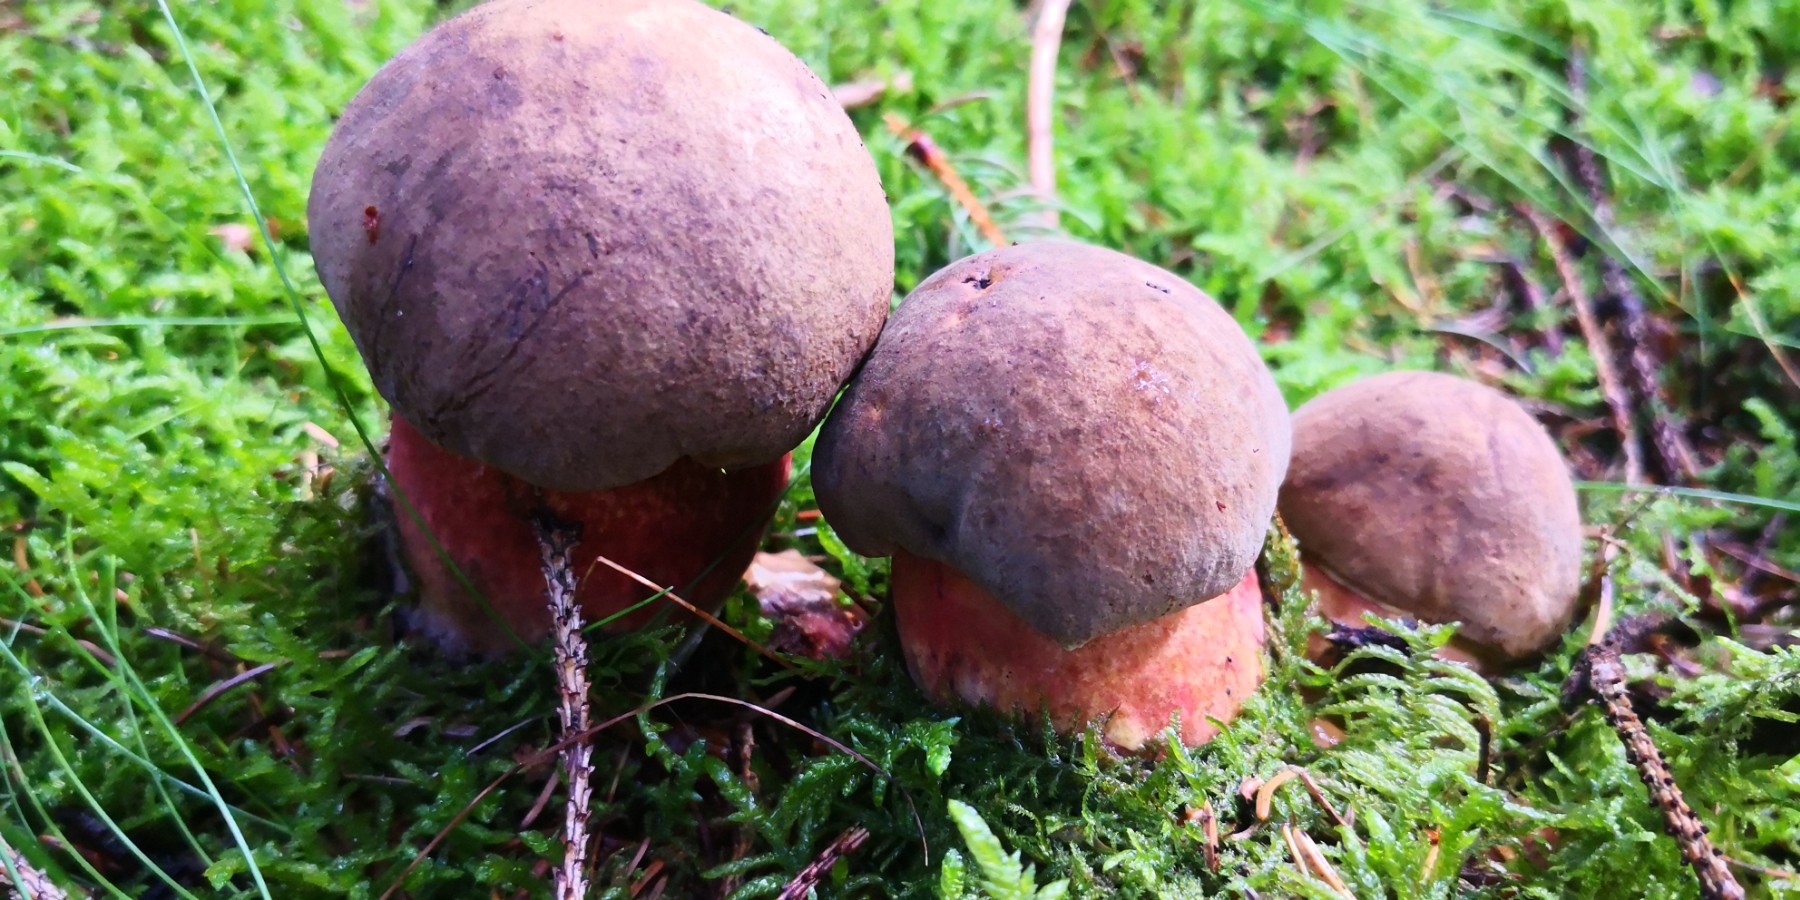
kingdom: Fungi
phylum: Basidiomycota
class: Agaricomycetes
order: Boletales
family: Boletaceae
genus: Neoboletus
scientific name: Neoboletus erythropus
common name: punktstokket indigorørhat
